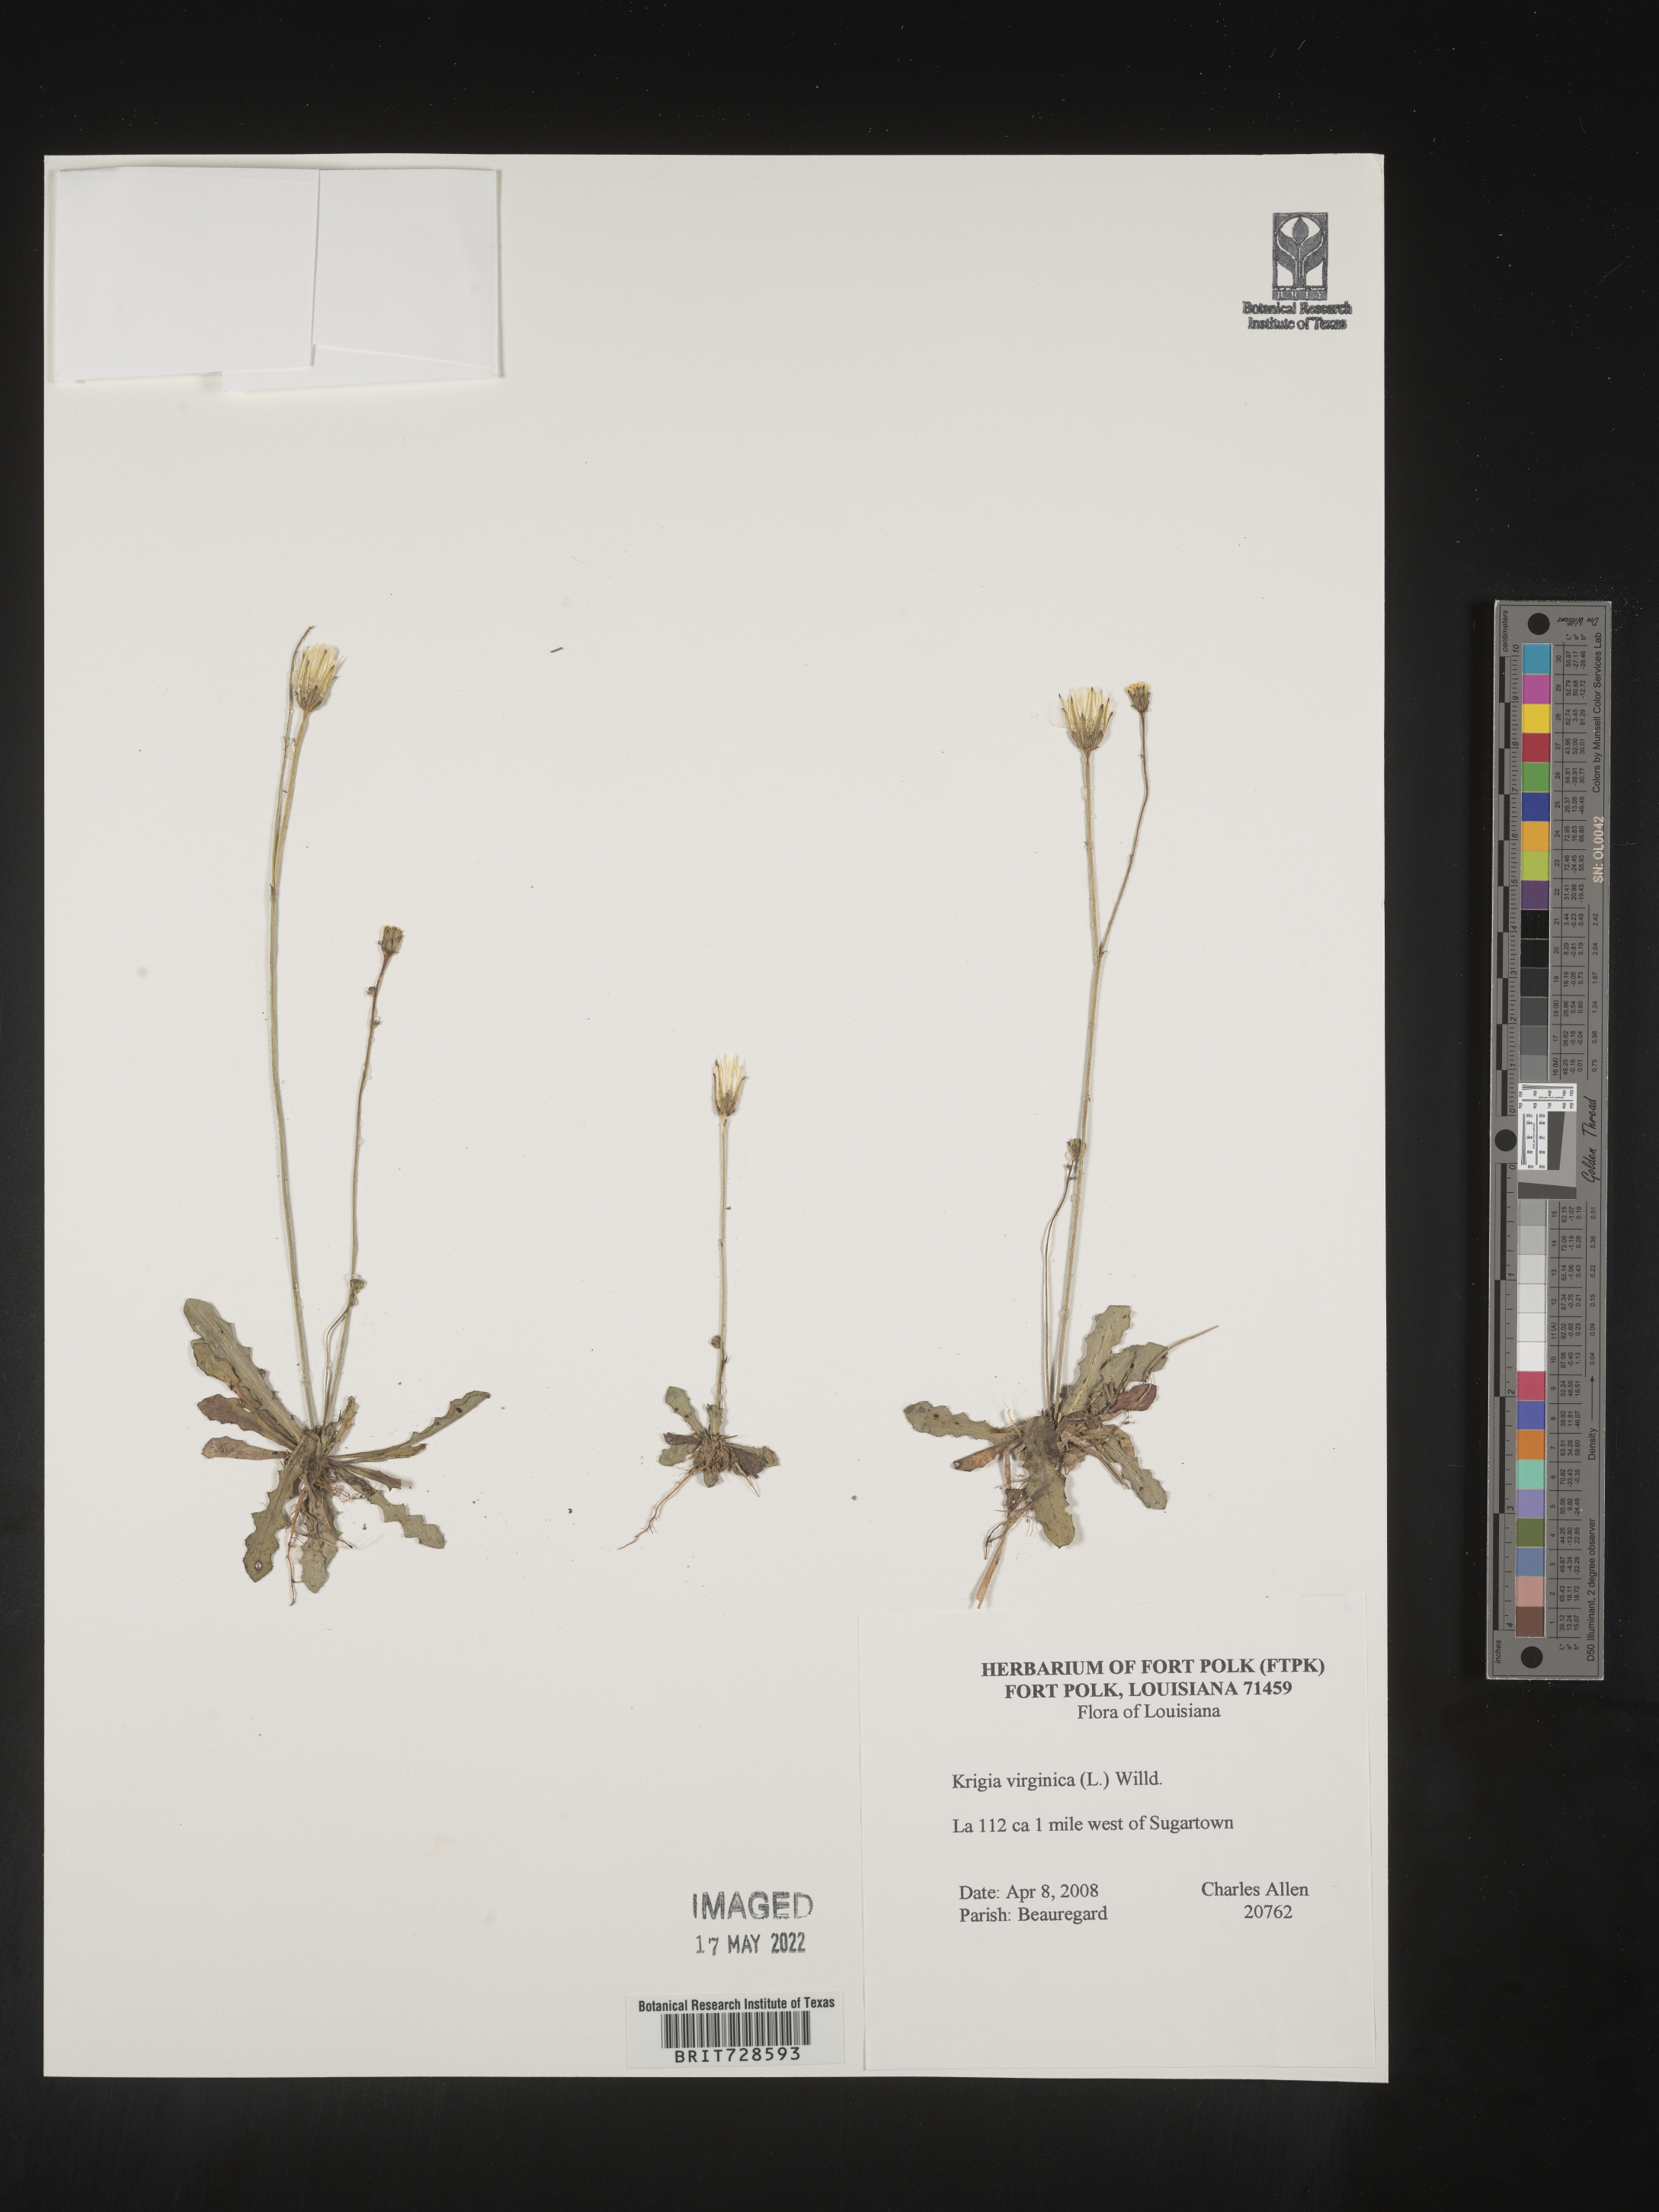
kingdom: Plantae
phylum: Tracheophyta
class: Magnoliopsida
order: Asterales
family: Asteraceae
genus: Krigia
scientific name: Krigia virginica
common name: Virginia dwarf-dandelion
